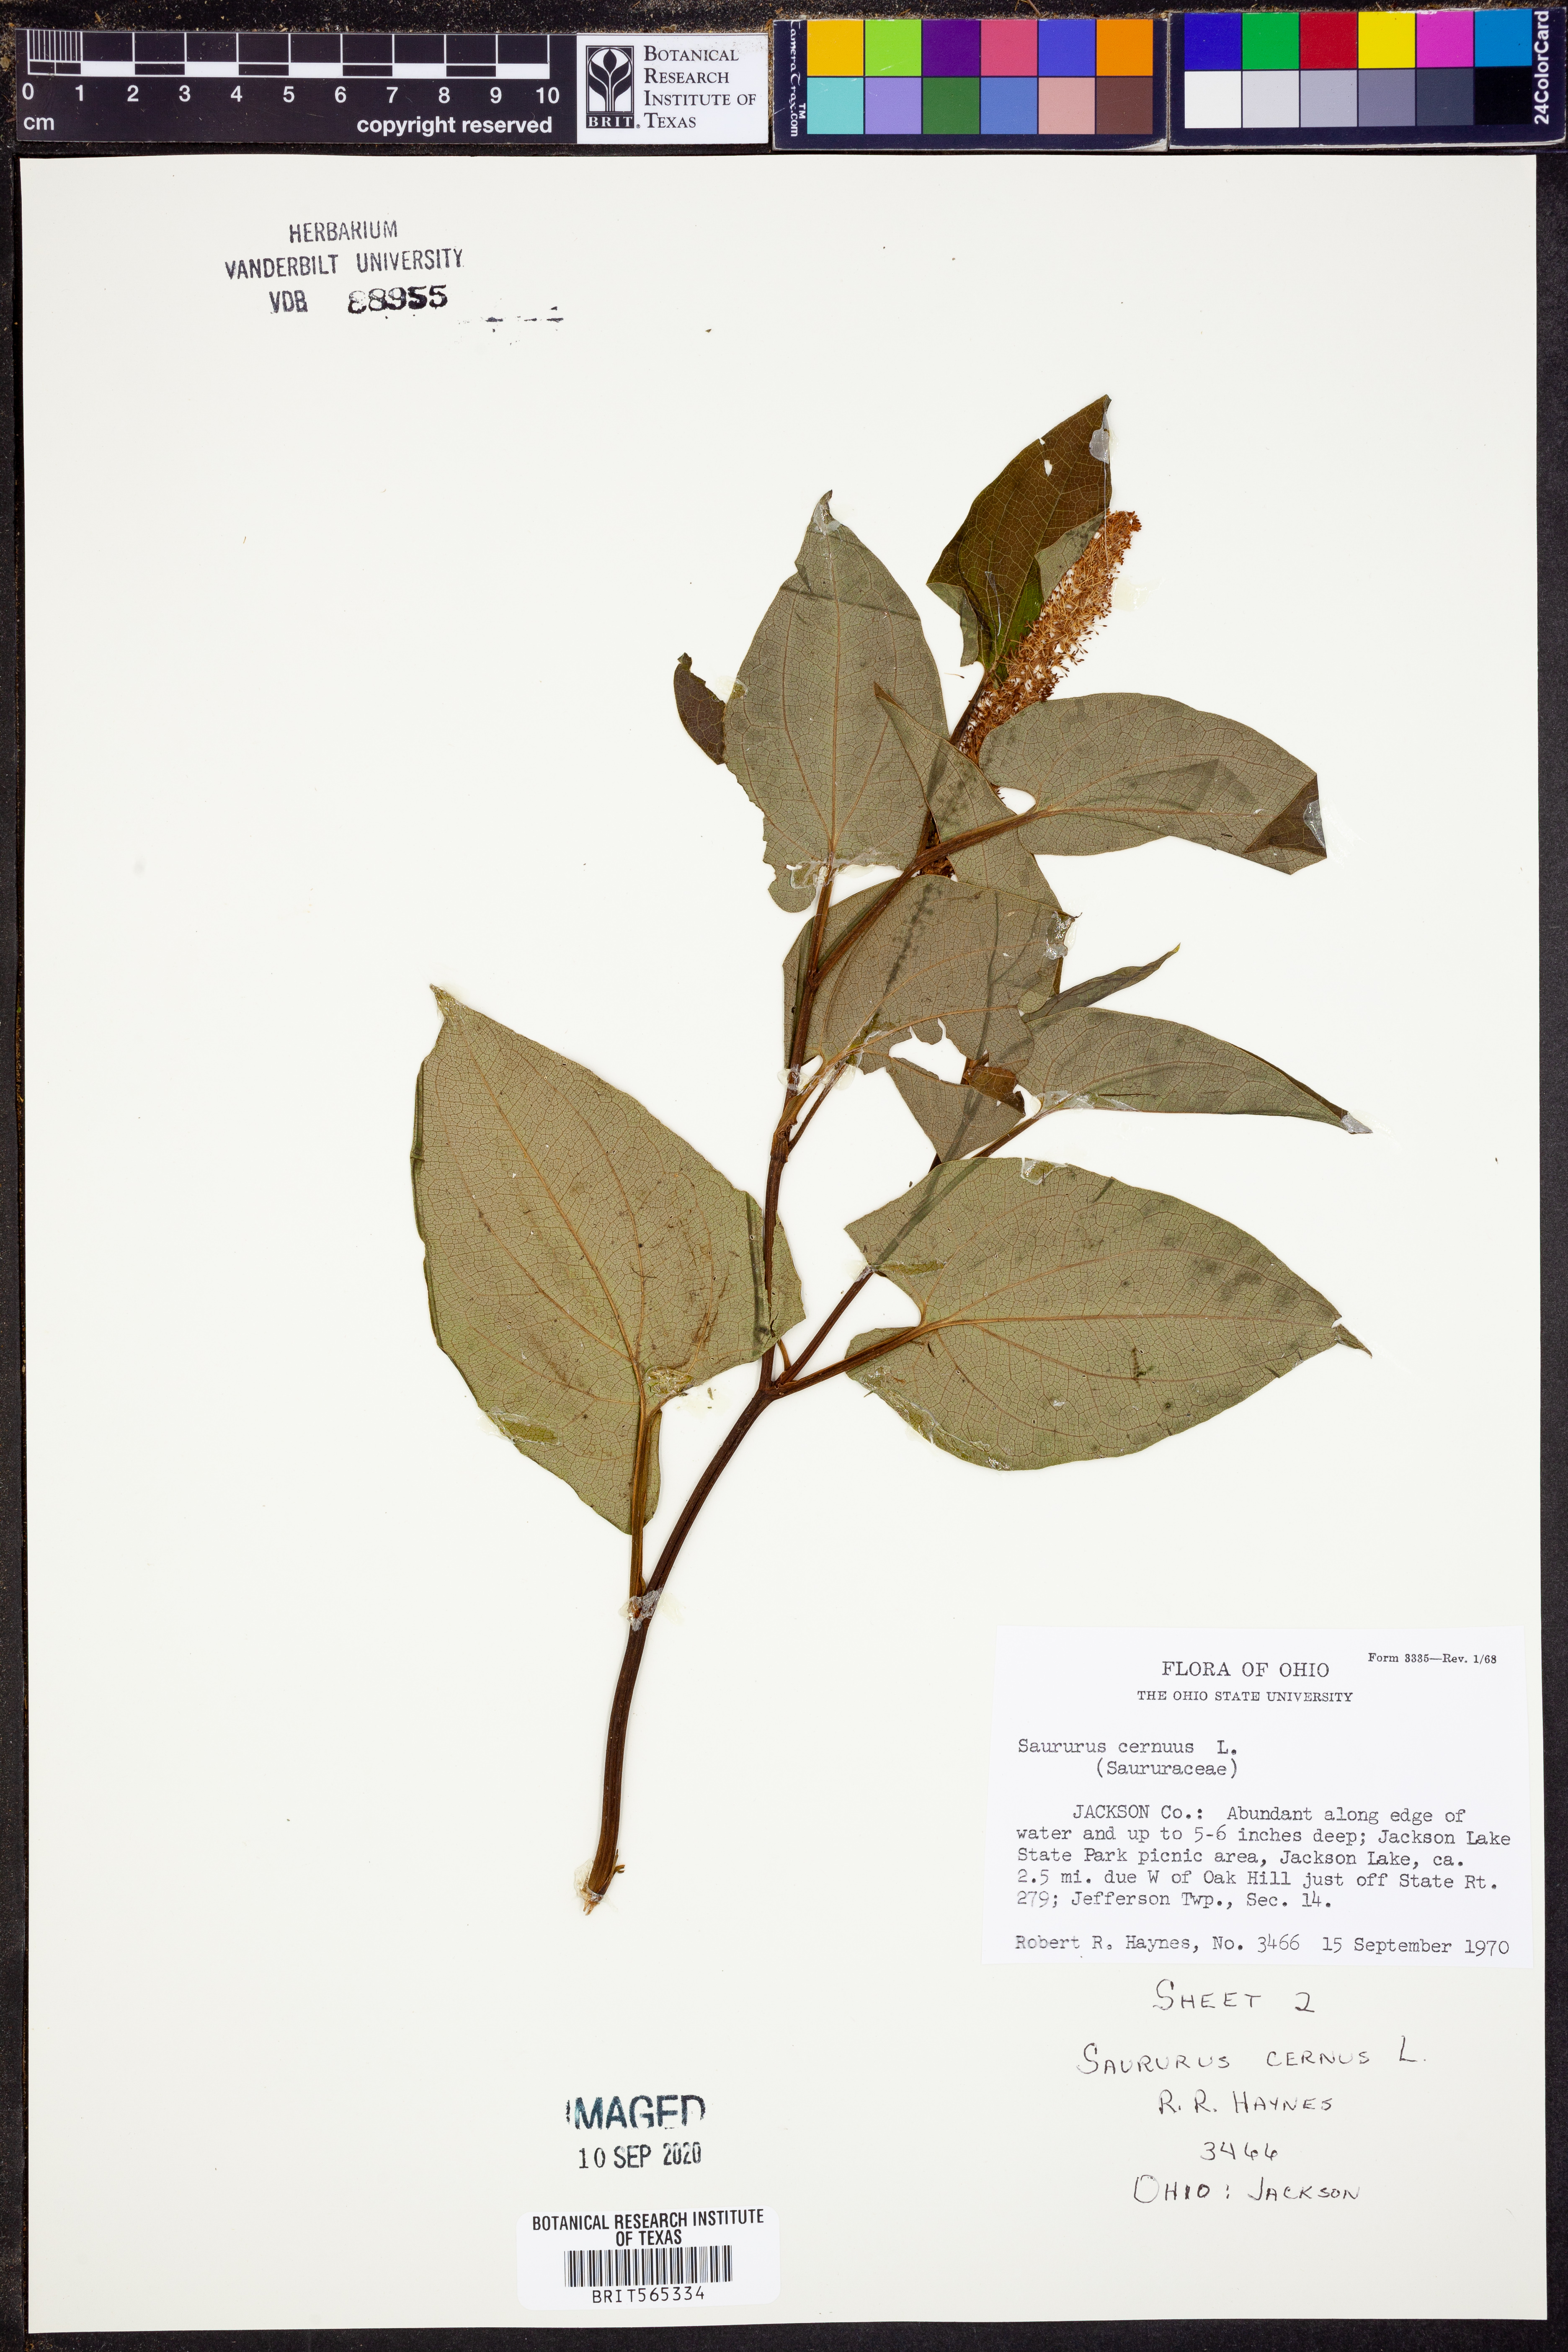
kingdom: Plantae
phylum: Tracheophyta
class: Magnoliopsida
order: Piperales
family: Saururaceae
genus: Saururus
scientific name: Saururus cernuus
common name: Lizard's-tail
